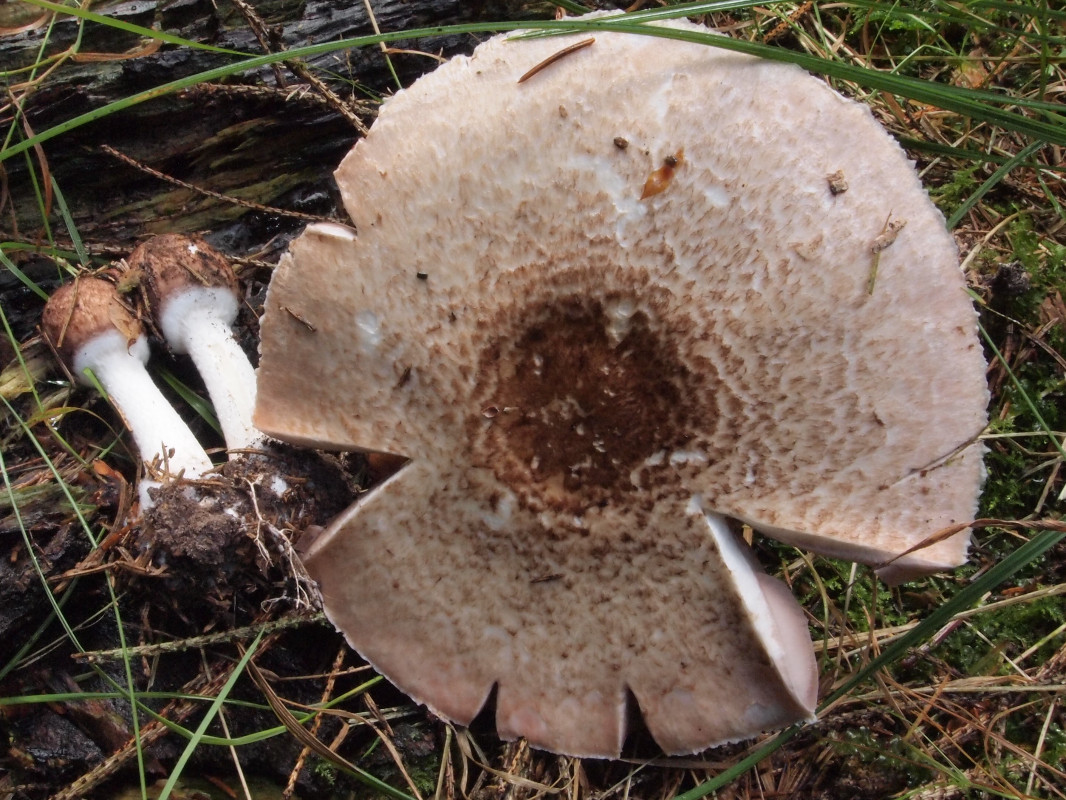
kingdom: Fungi
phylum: Basidiomycota
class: Agaricomycetes
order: Agaricales
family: Agaricaceae
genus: Agaricus
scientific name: Agaricus impudicus
